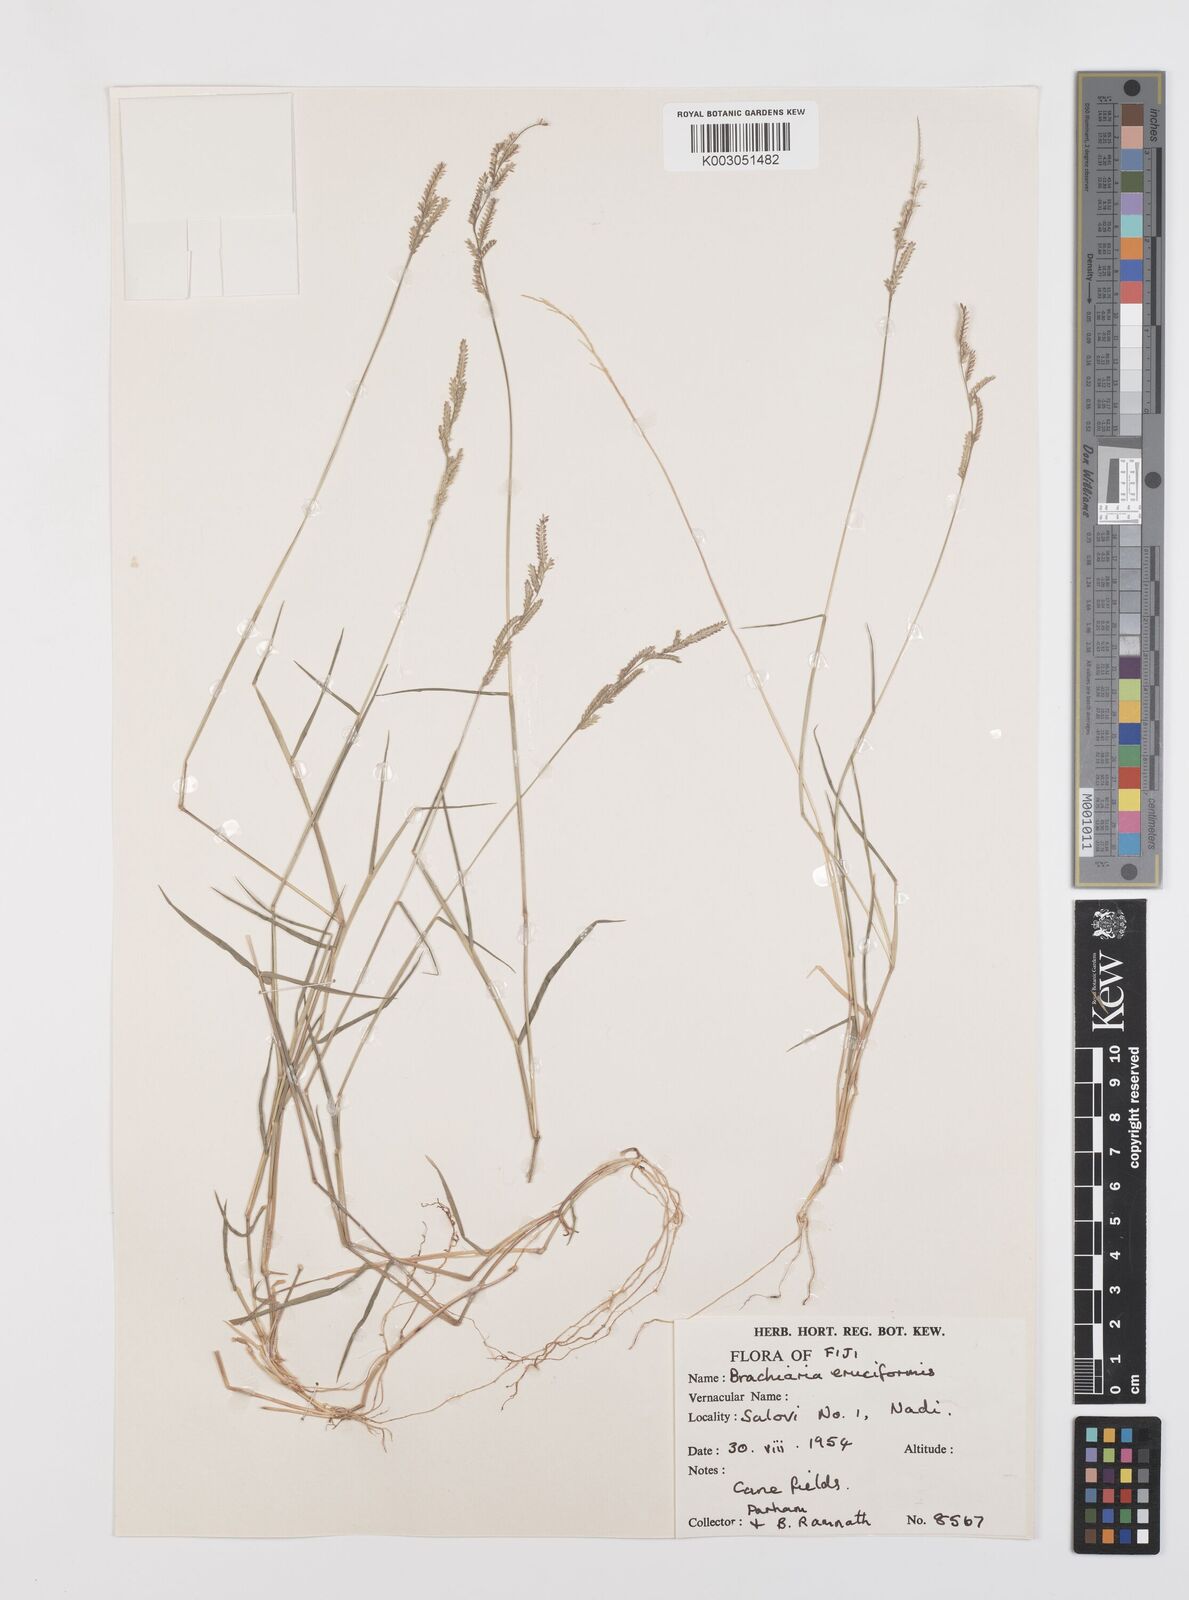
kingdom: Plantae
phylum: Tracheophyta
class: Liliopsida
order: Poales
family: Poaceae
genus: Moorochloa
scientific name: Moorochloa eruciformis
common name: Sweet signalgrass
